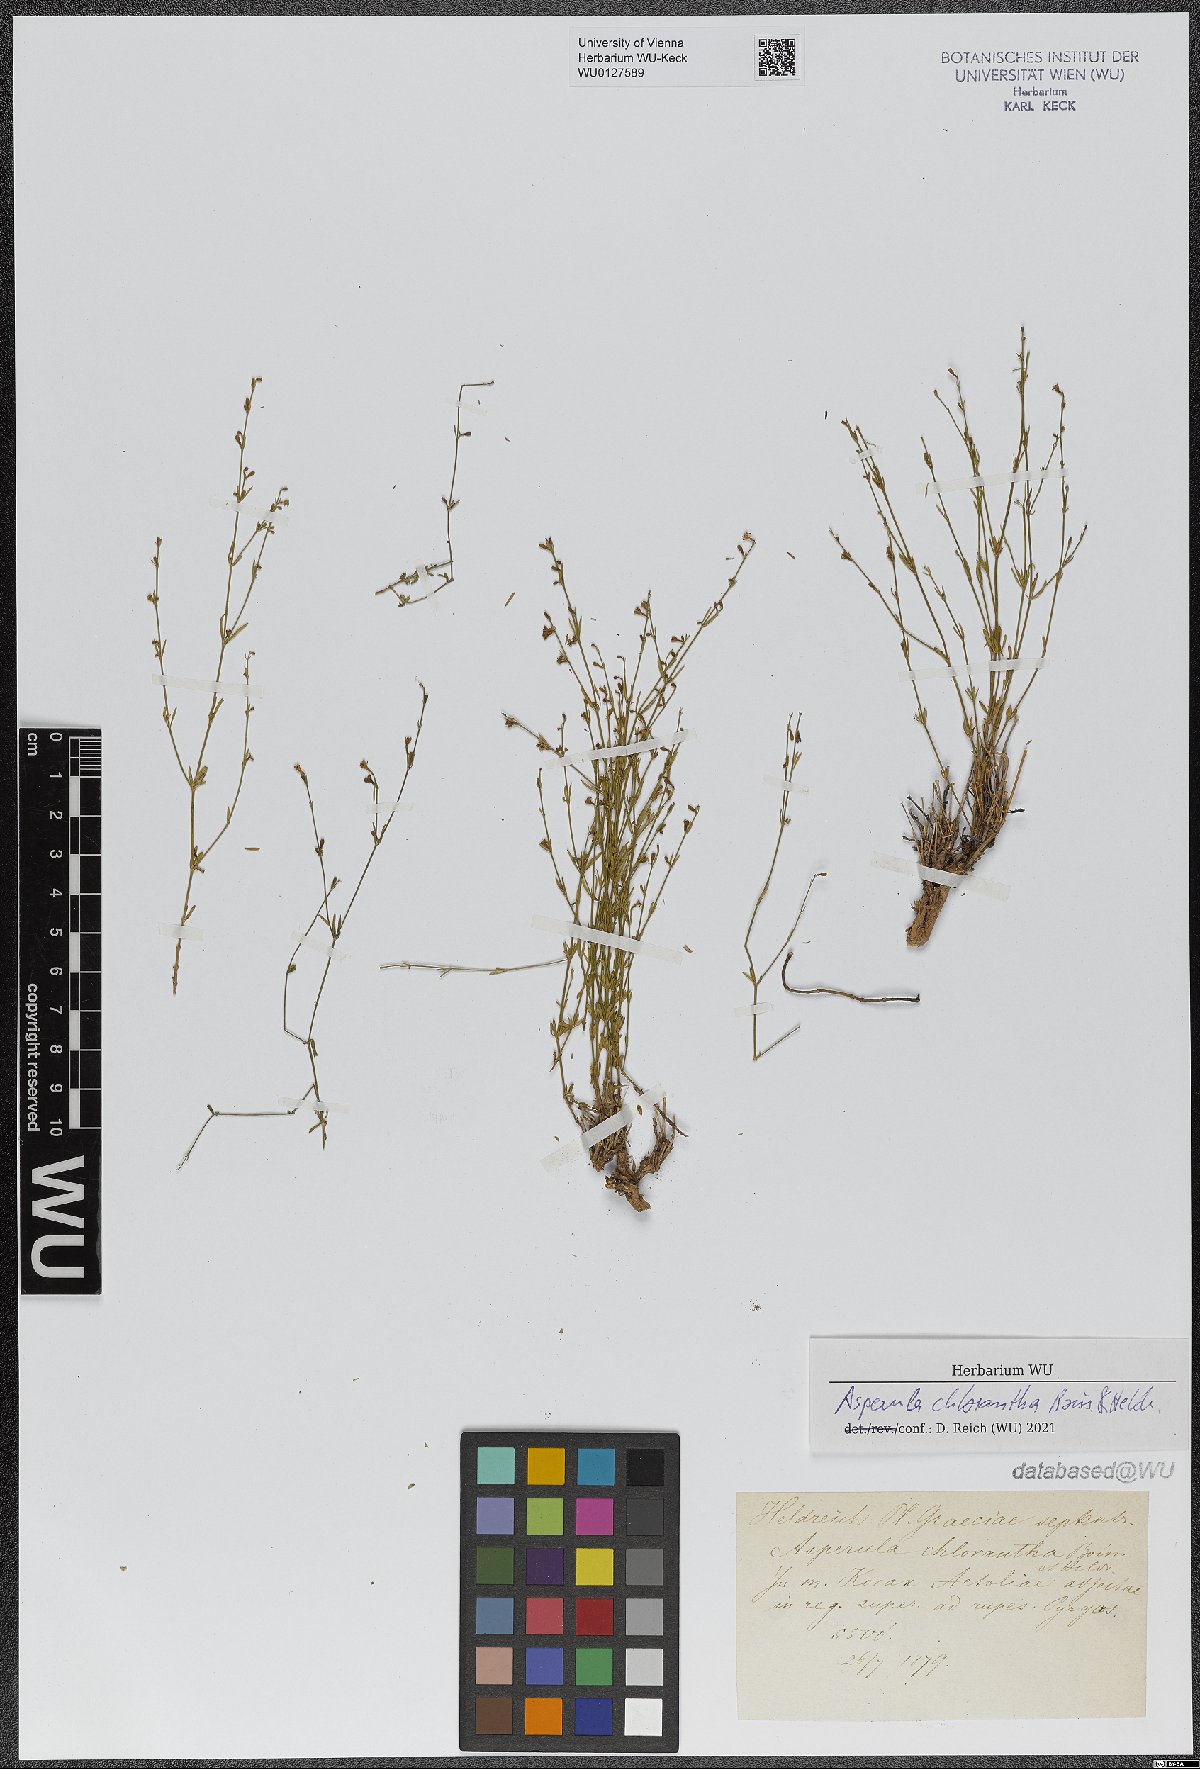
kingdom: Plantae
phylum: Tracheophyta
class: Magnoliopsida
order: Gentianales
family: Rubiaceae
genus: Thliphthisa
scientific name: Thliphthisa chlorantha
